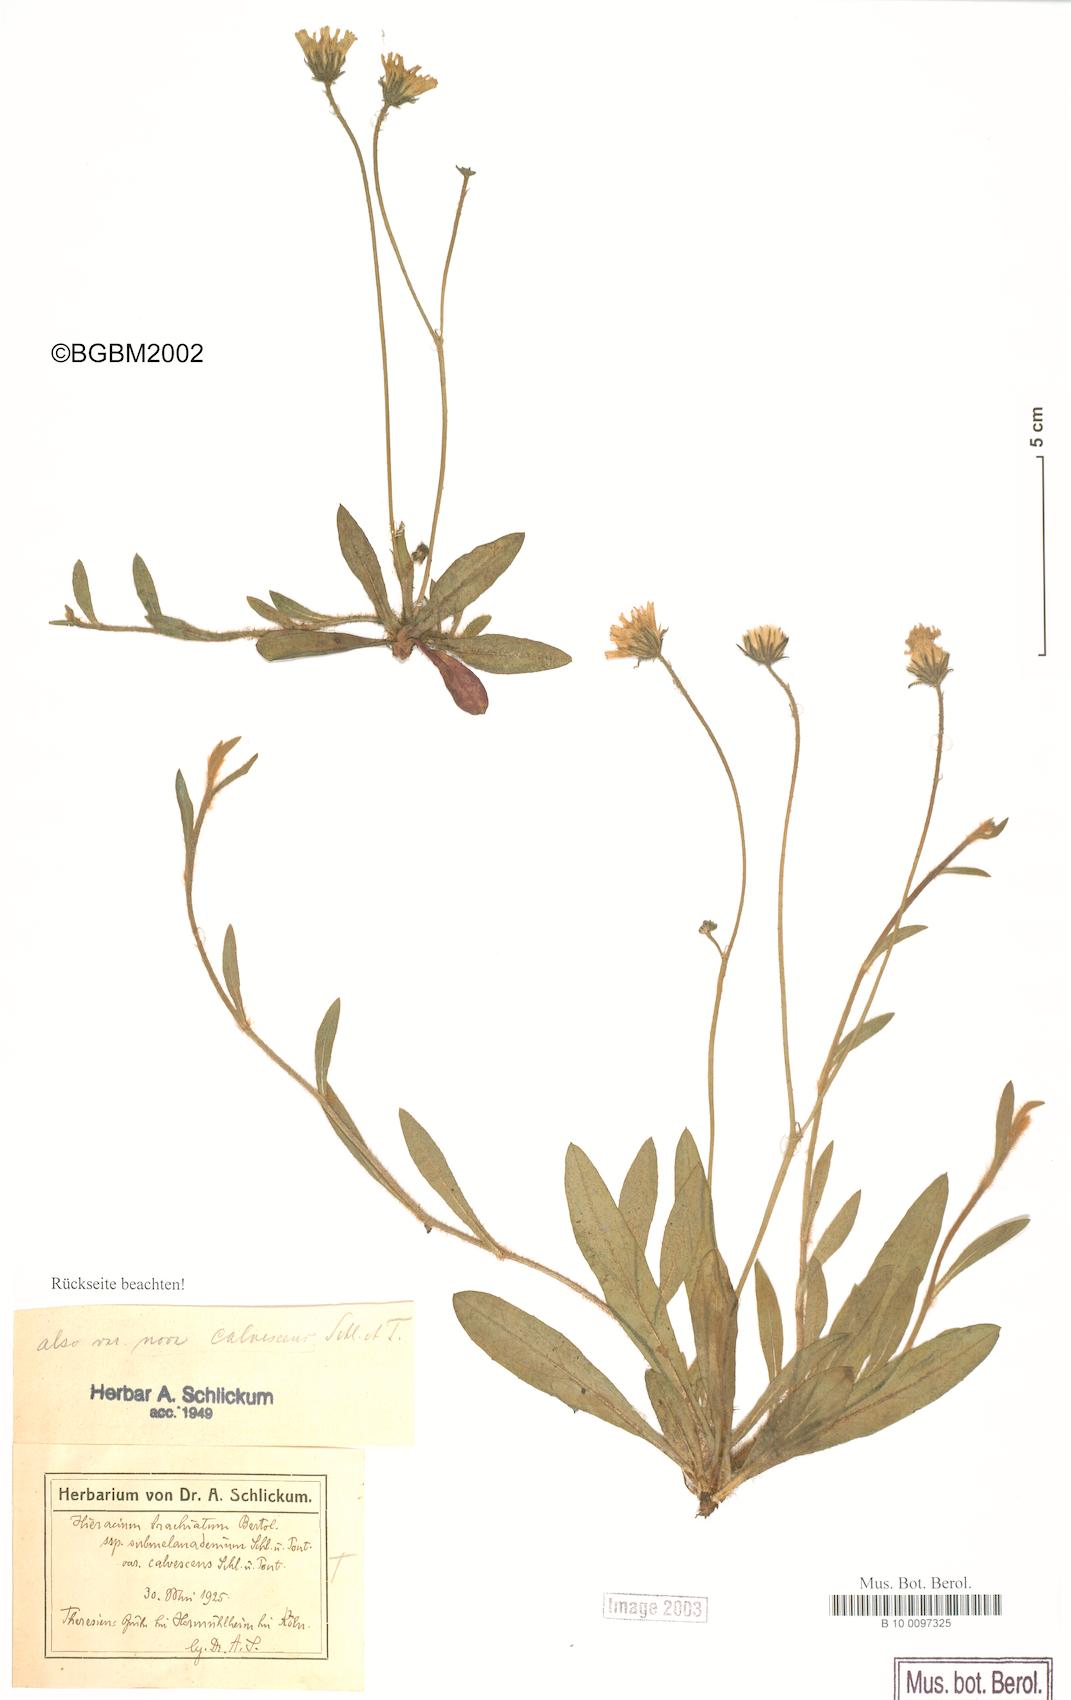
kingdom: Plantae
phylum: Tracheophyta
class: Magnoliopsida
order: Asterales
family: Asteraceae
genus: Pilosella
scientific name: Pilosella acutifolia
